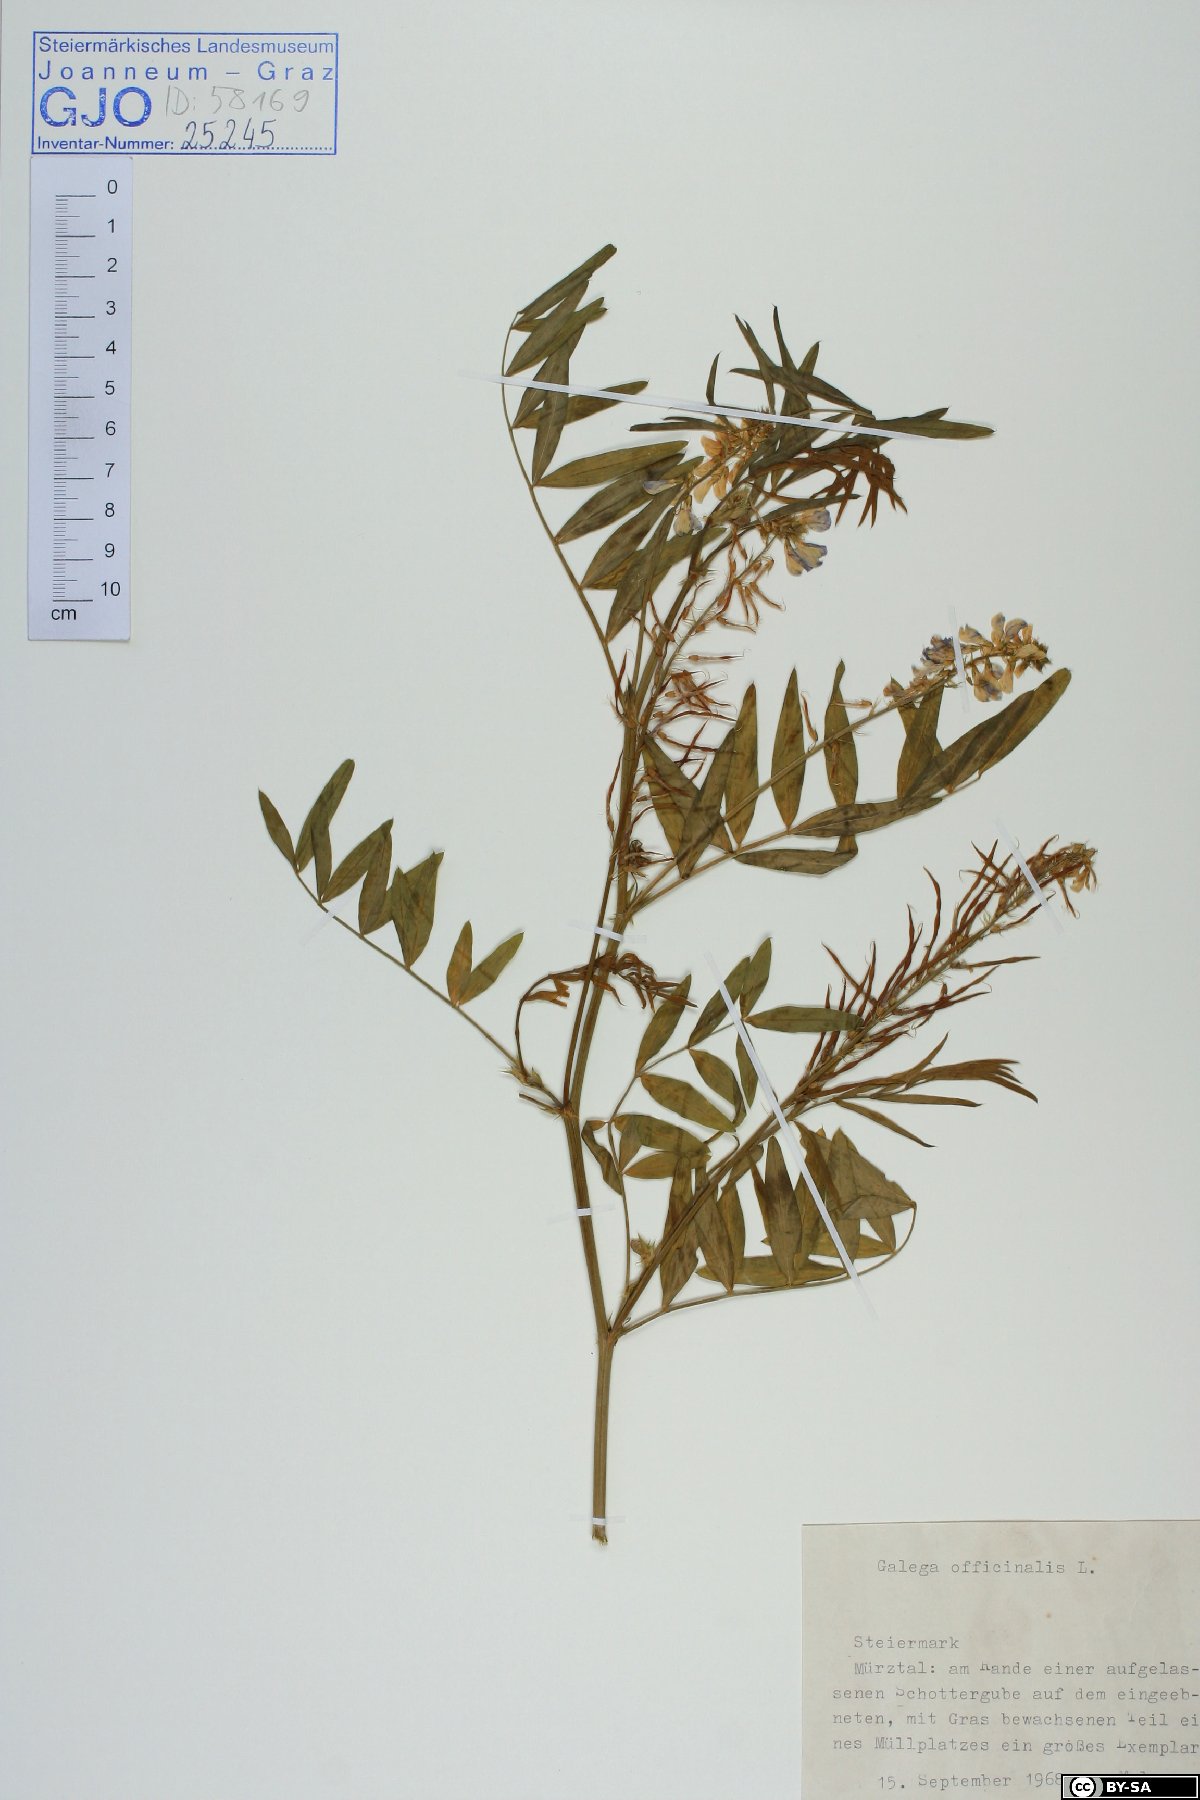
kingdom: Plantae
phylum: Tracheophyta
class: Magnoliopsida
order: Fabales
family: Fabaceae
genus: Galega
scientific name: Galega officinalis
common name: Goat's-rue
